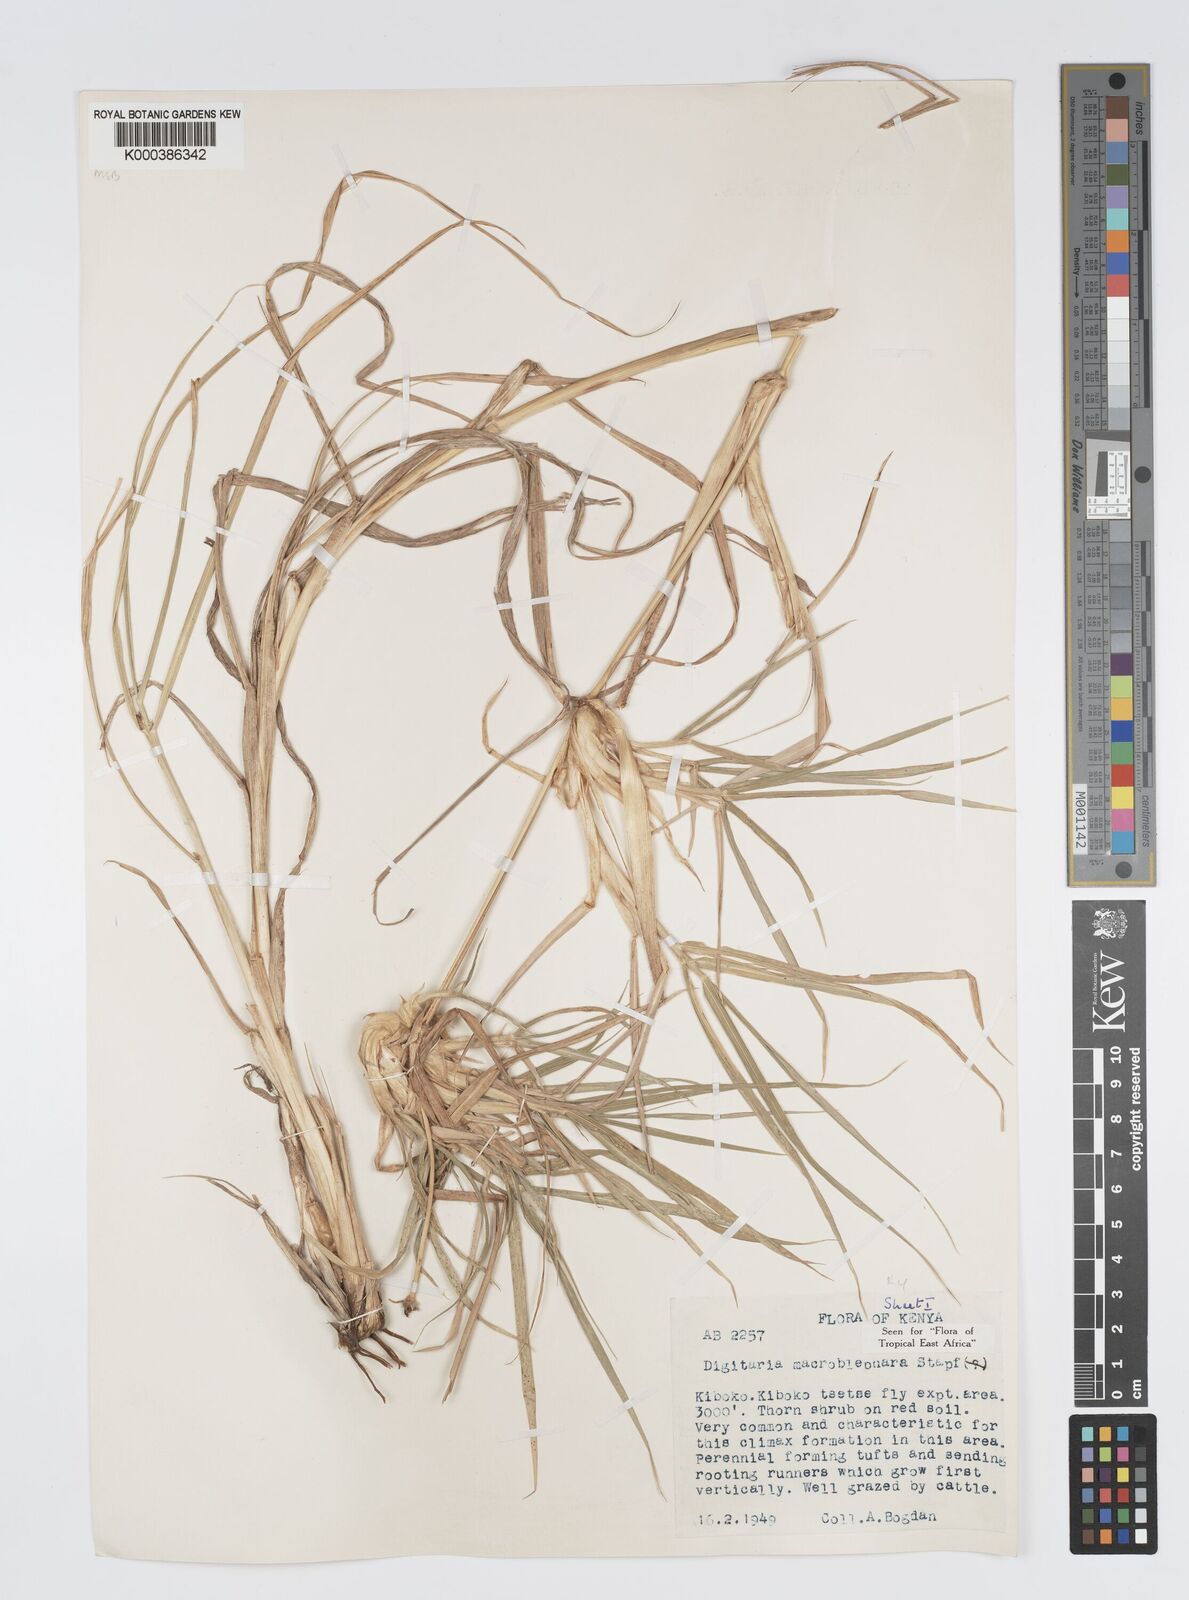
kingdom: Plantae
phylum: Tracheophyta
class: Liliopsida
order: Poales
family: Poaceae
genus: Digitaria
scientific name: Digitaria macroblephara
